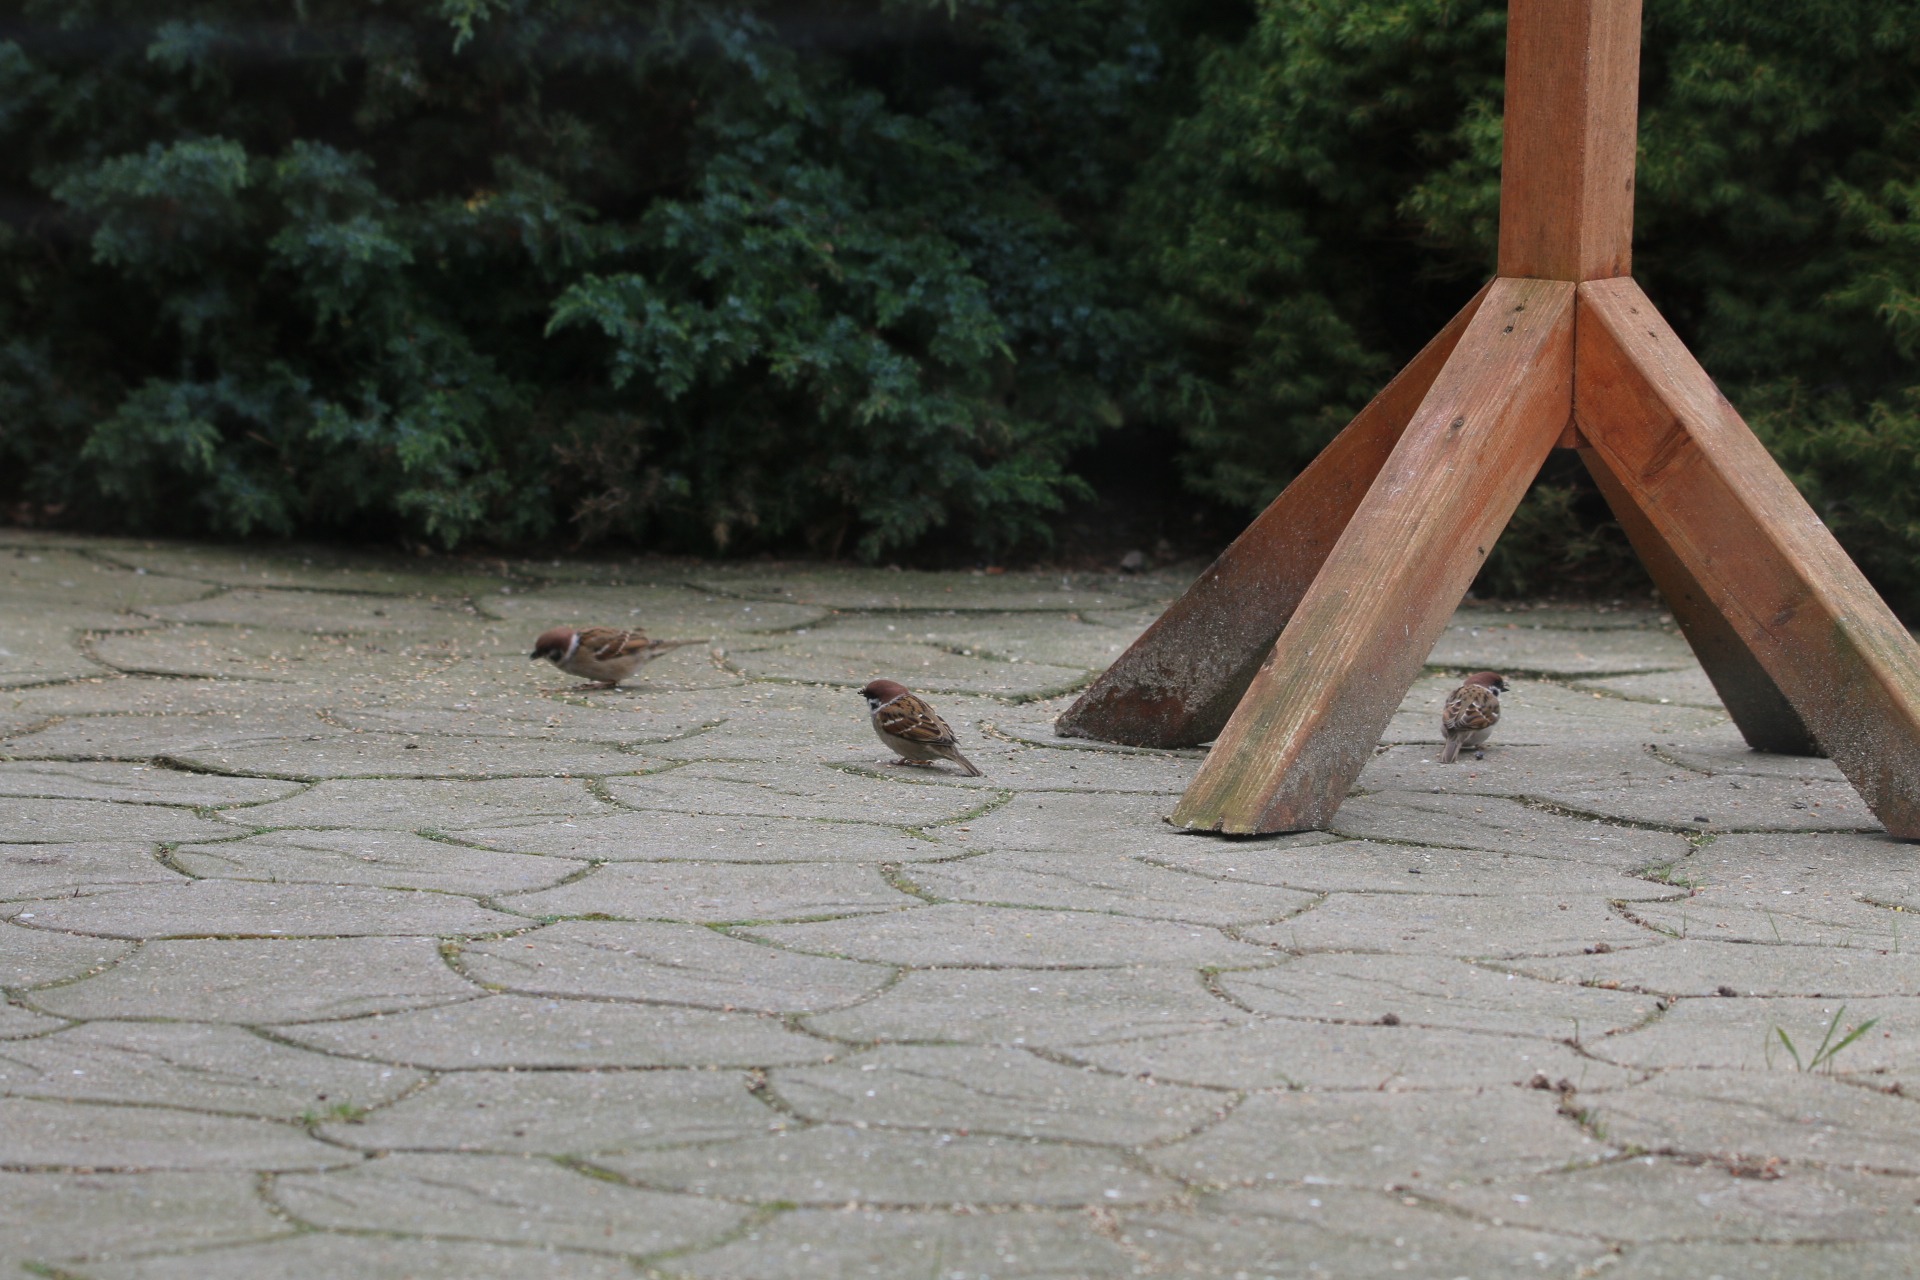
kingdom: Animalia
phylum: Chordata
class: Aves
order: Passeriformes
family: Passeridae
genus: Passer
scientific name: Passer montanus
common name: Skovspurv
